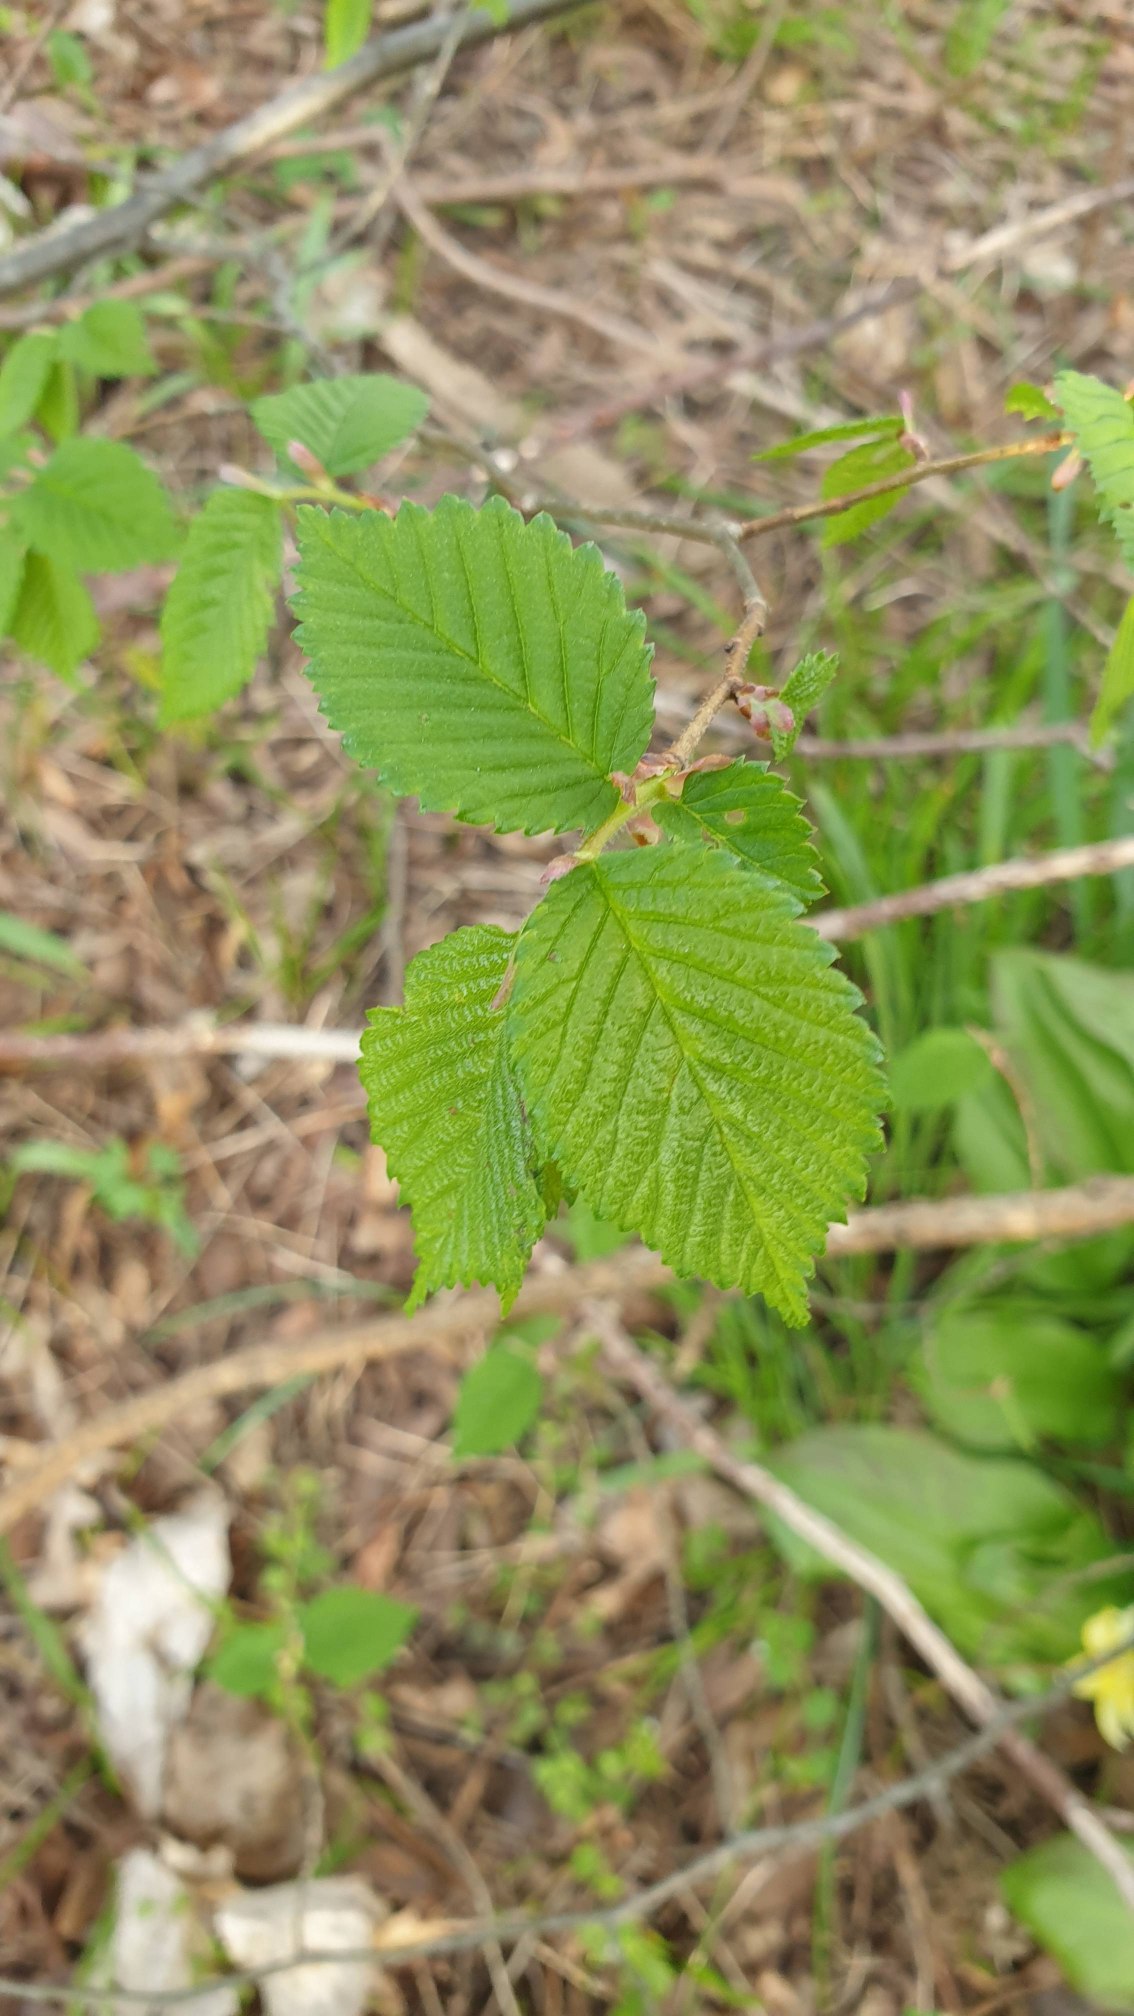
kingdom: Plantae
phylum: Tracheophyta
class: Magnoliopsida
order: Rosales
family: Ulmaceae
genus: Ulmus
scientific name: Ulmus glabra
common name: Skov-elm/storbladet elm
